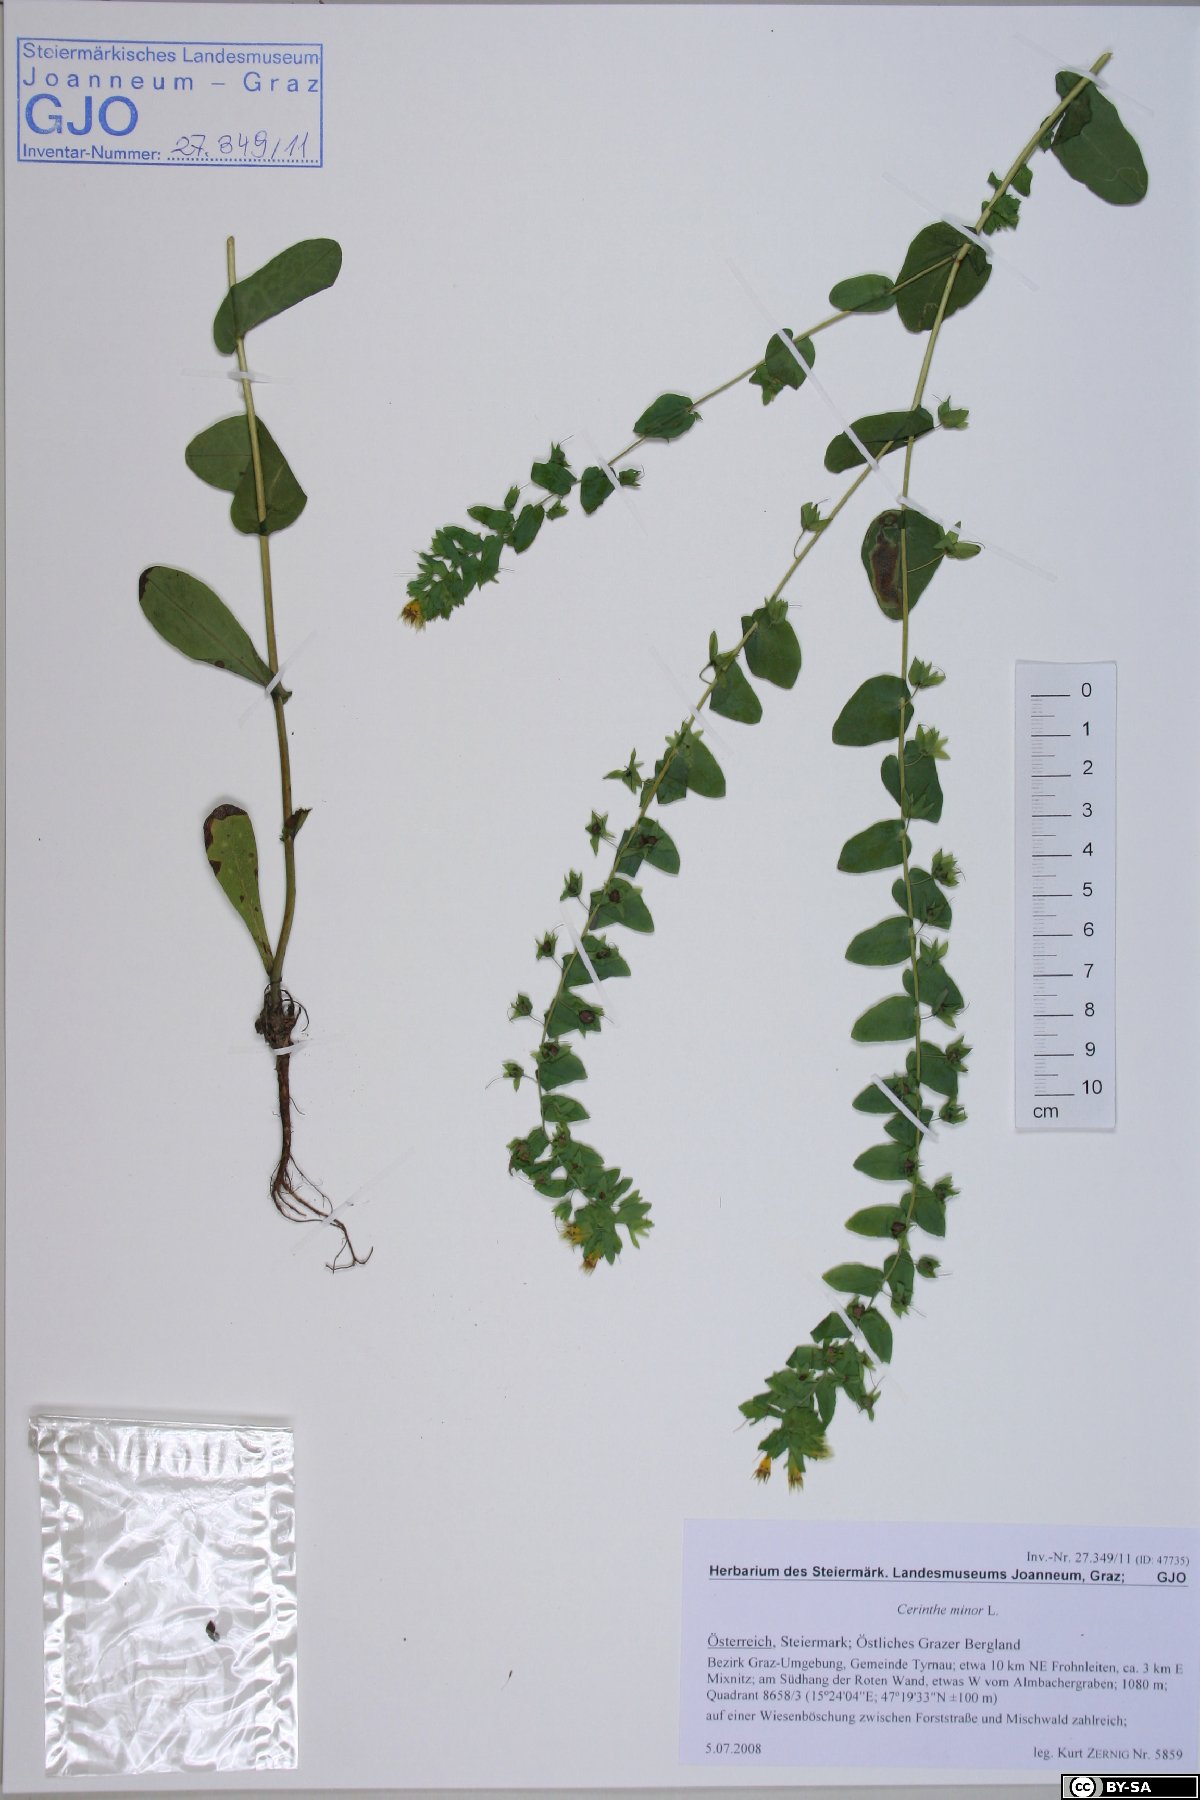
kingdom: Plantae
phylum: Tracheophyta
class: Magnoliopsida
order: Boraginales
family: Boraginaceae
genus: Cerinthe
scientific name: Cerinthe minor
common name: Lesser honeywort
